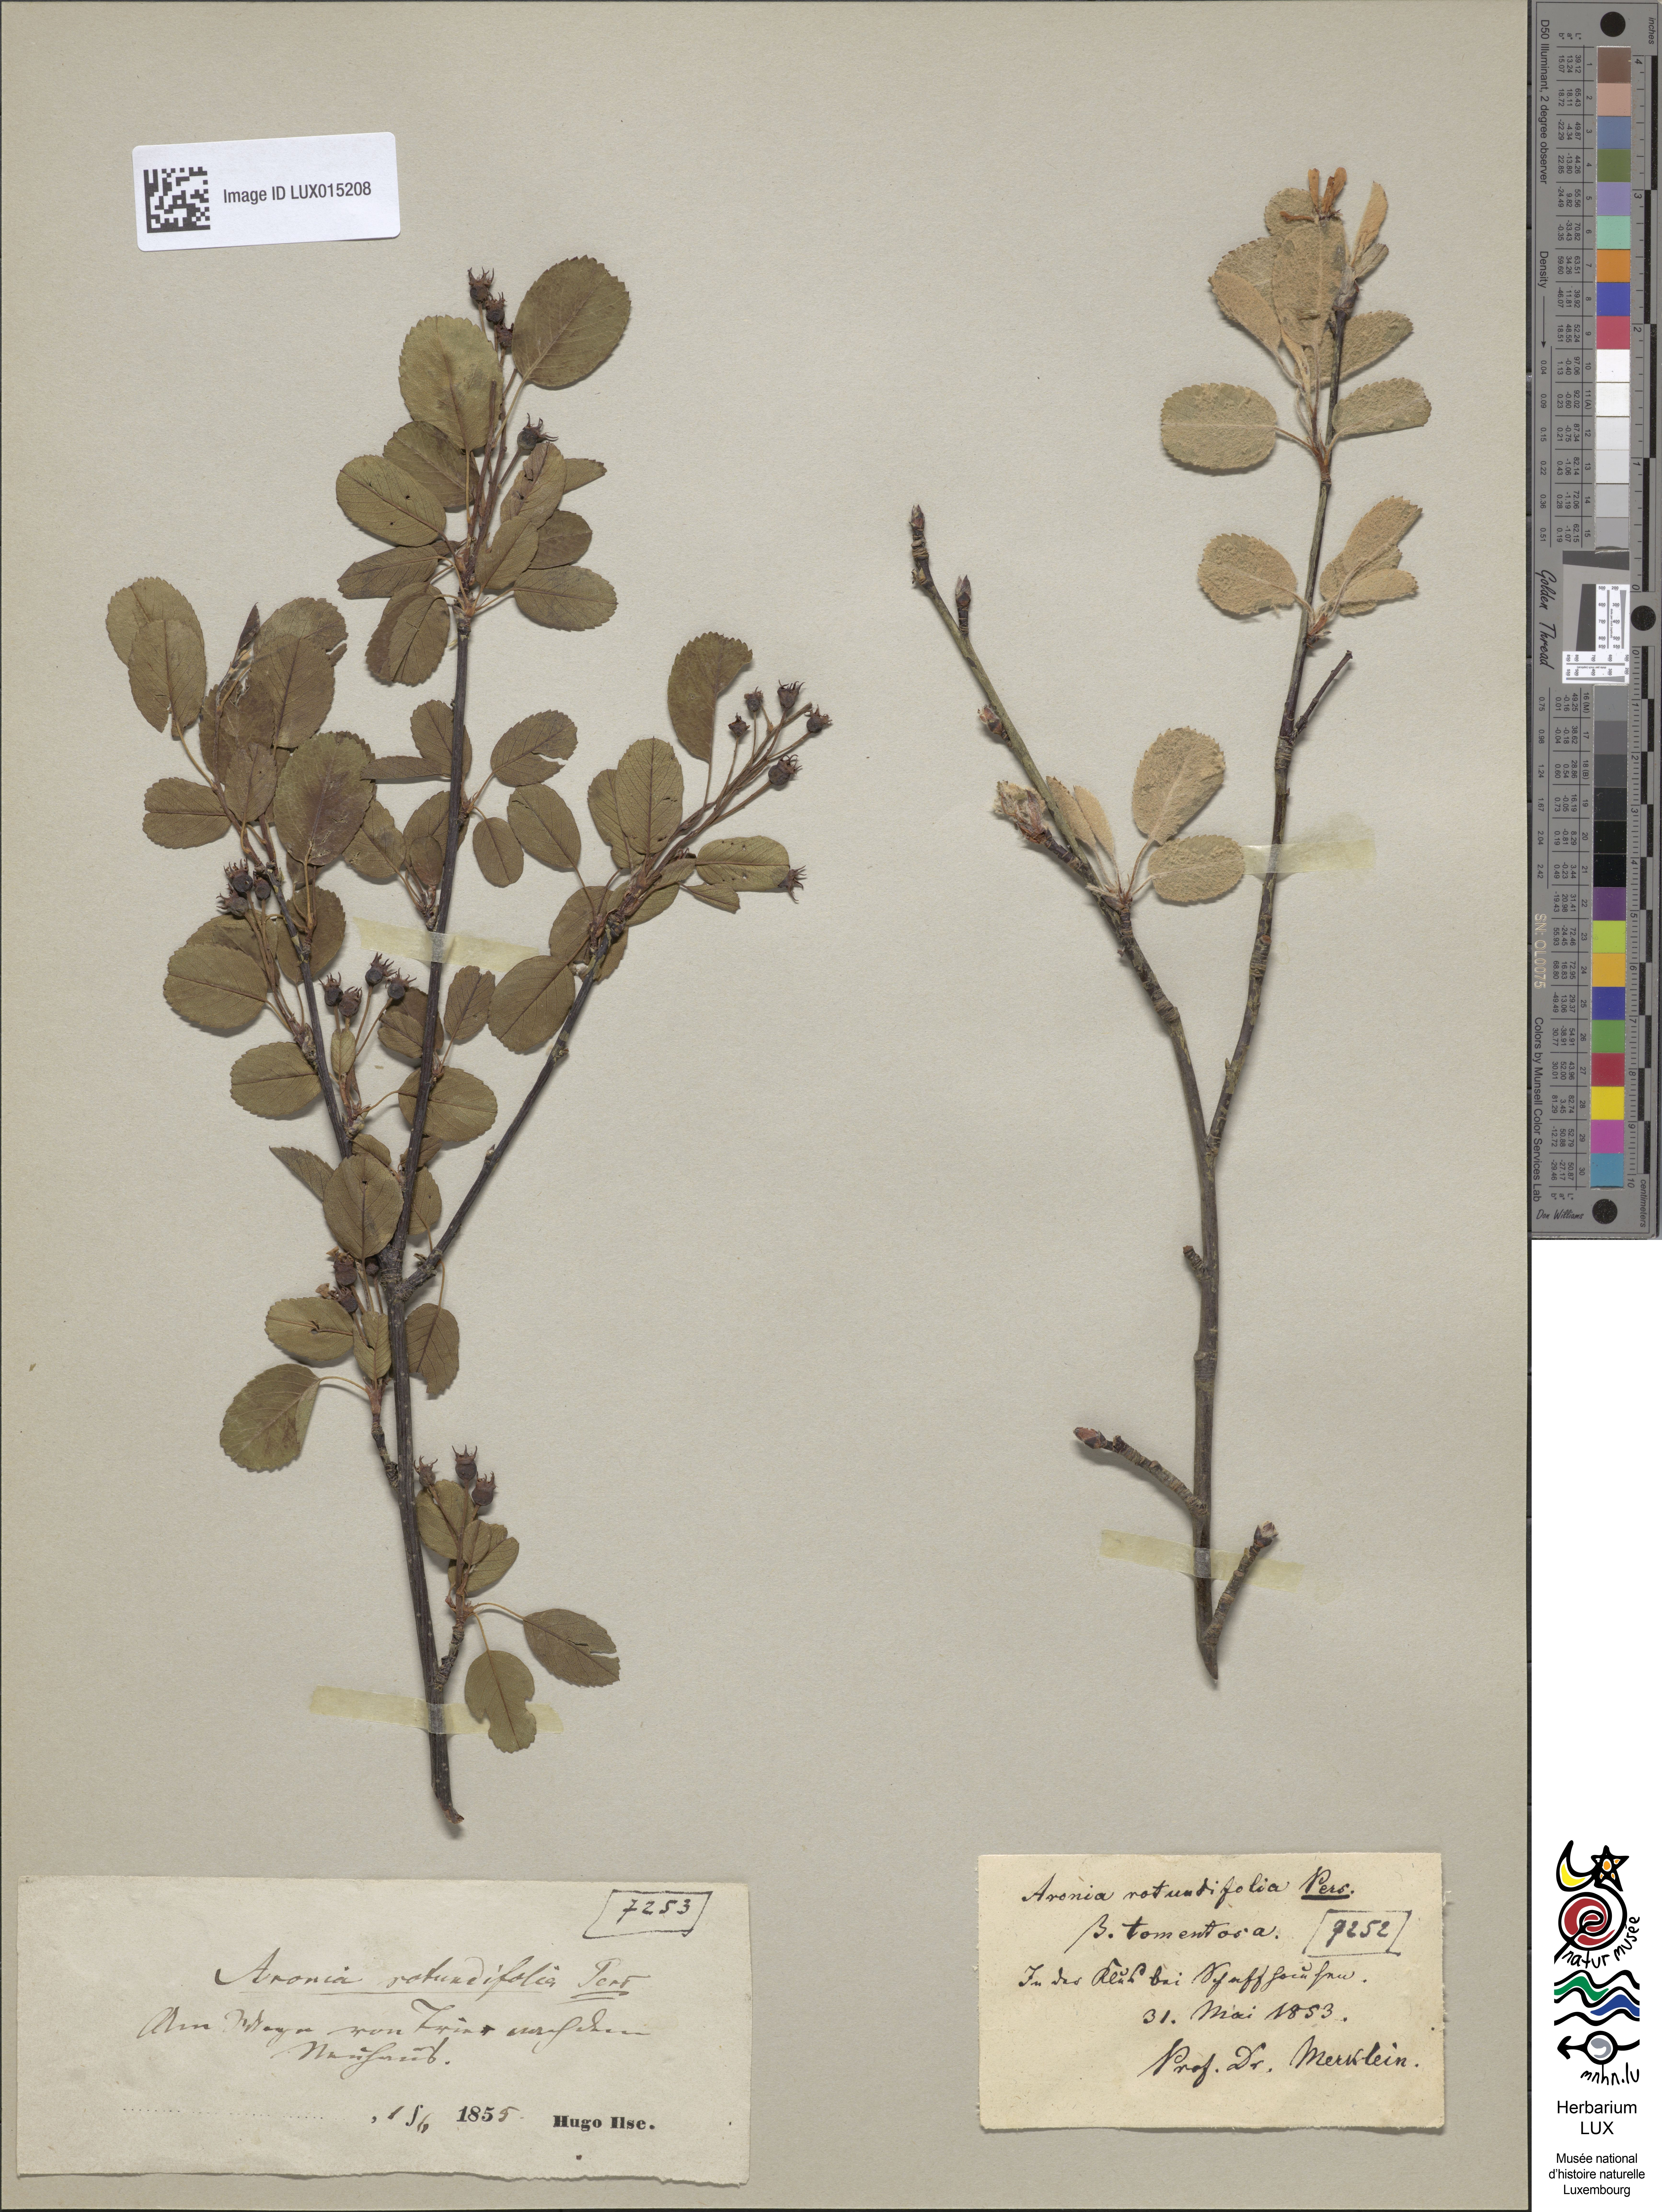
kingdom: Plantae
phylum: Tracheophyta
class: Magnoliopsida
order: Rosales
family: Rosaceae
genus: Amelanchier
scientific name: Amelanchier ovalis
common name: Serviceberry
